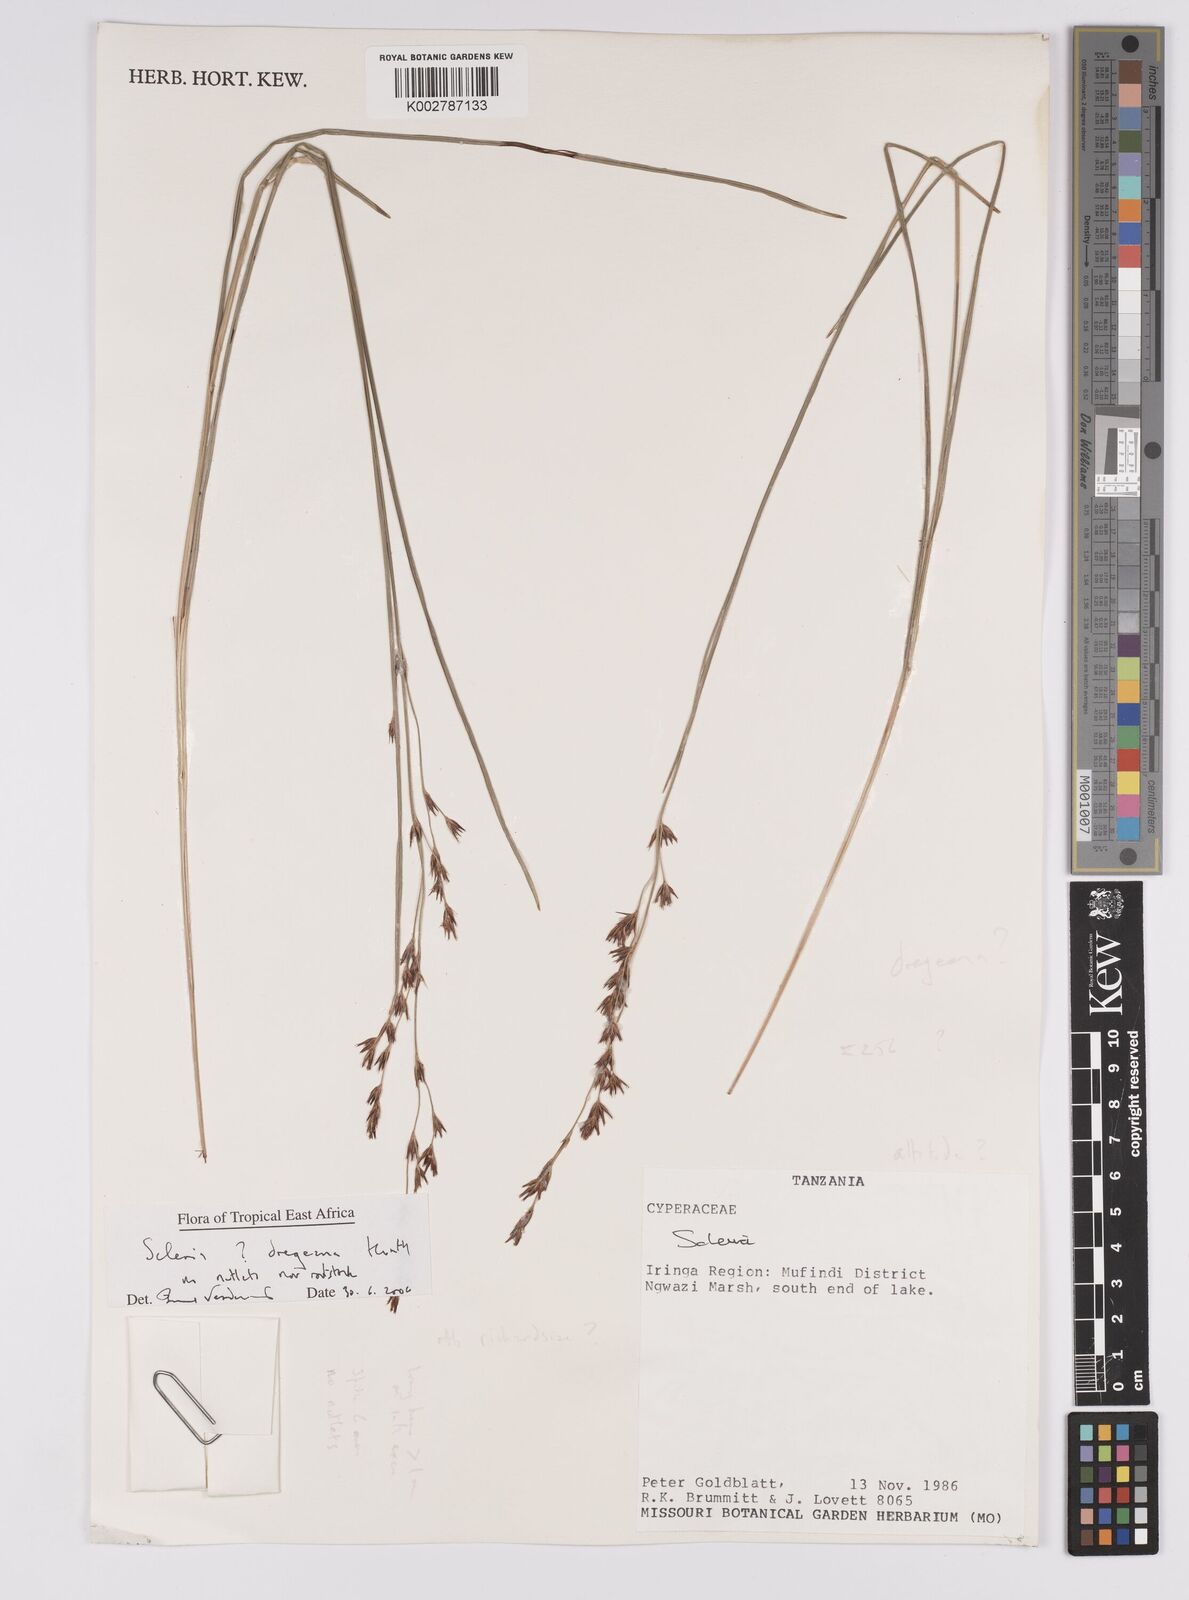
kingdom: Plantae
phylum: Tracheophyta
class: Liliopsida
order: Poales
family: Cyperaceae
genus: Scleria
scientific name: Scleria dregeana
